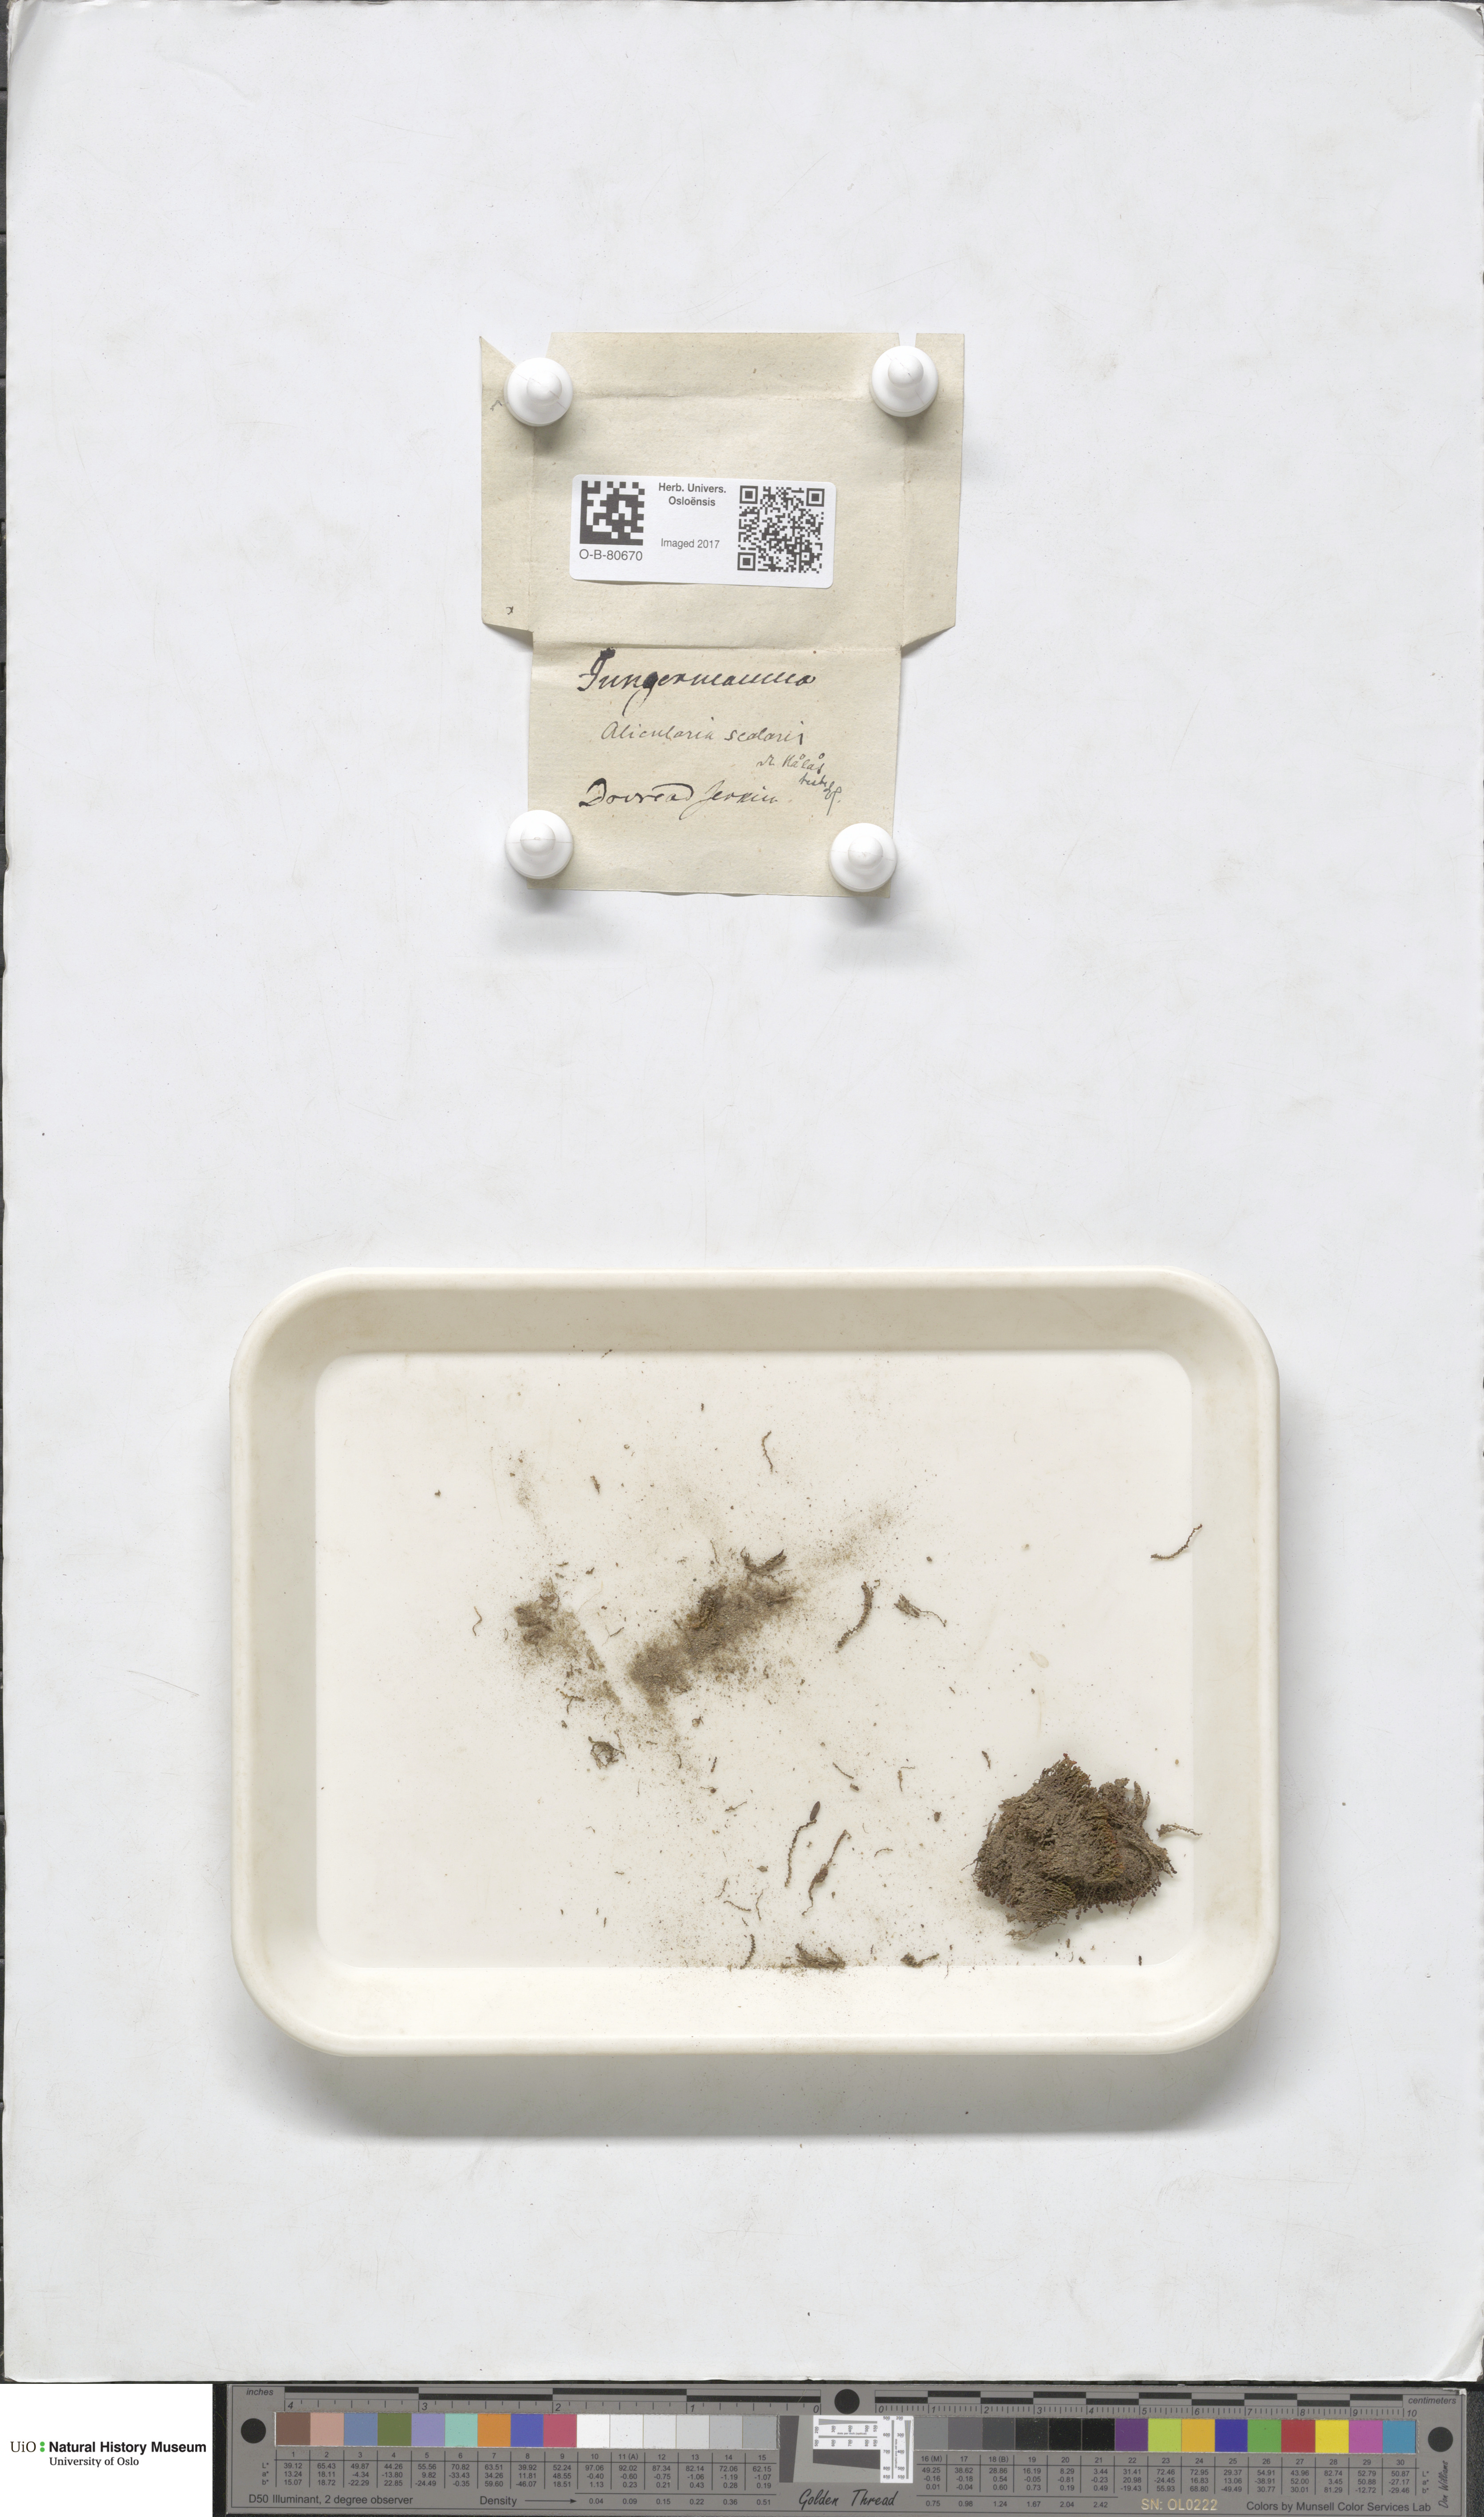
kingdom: Plantae
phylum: Marchantiophyta
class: Jungermanniopsida
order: Jungermanniales
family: Gymnomitriaceae
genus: Nardia
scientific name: Nardia scalaris
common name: Ladder flapwort
